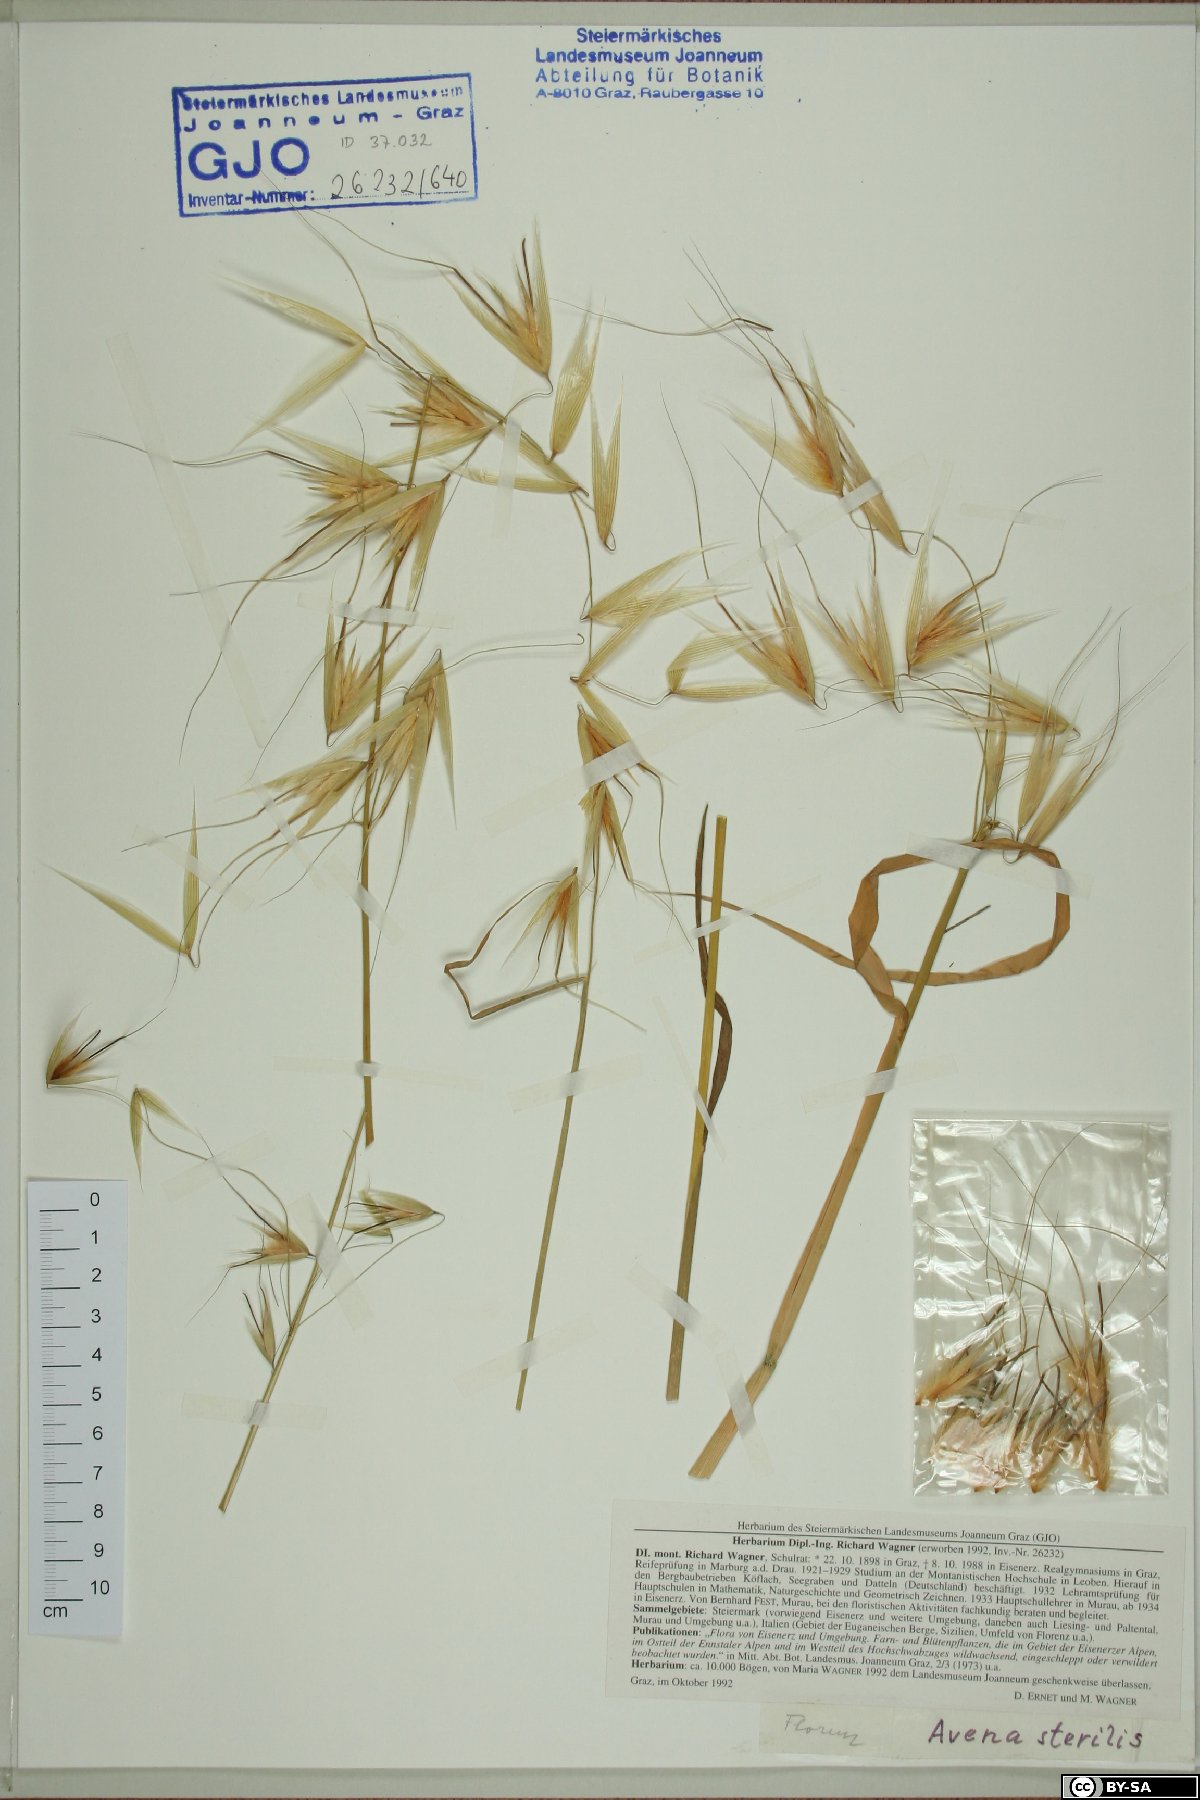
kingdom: Plantae
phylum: Tracheophyta
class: Liliopsida
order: Poales
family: Poaceae
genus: Avena
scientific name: Avena sterilis
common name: Animated oat
